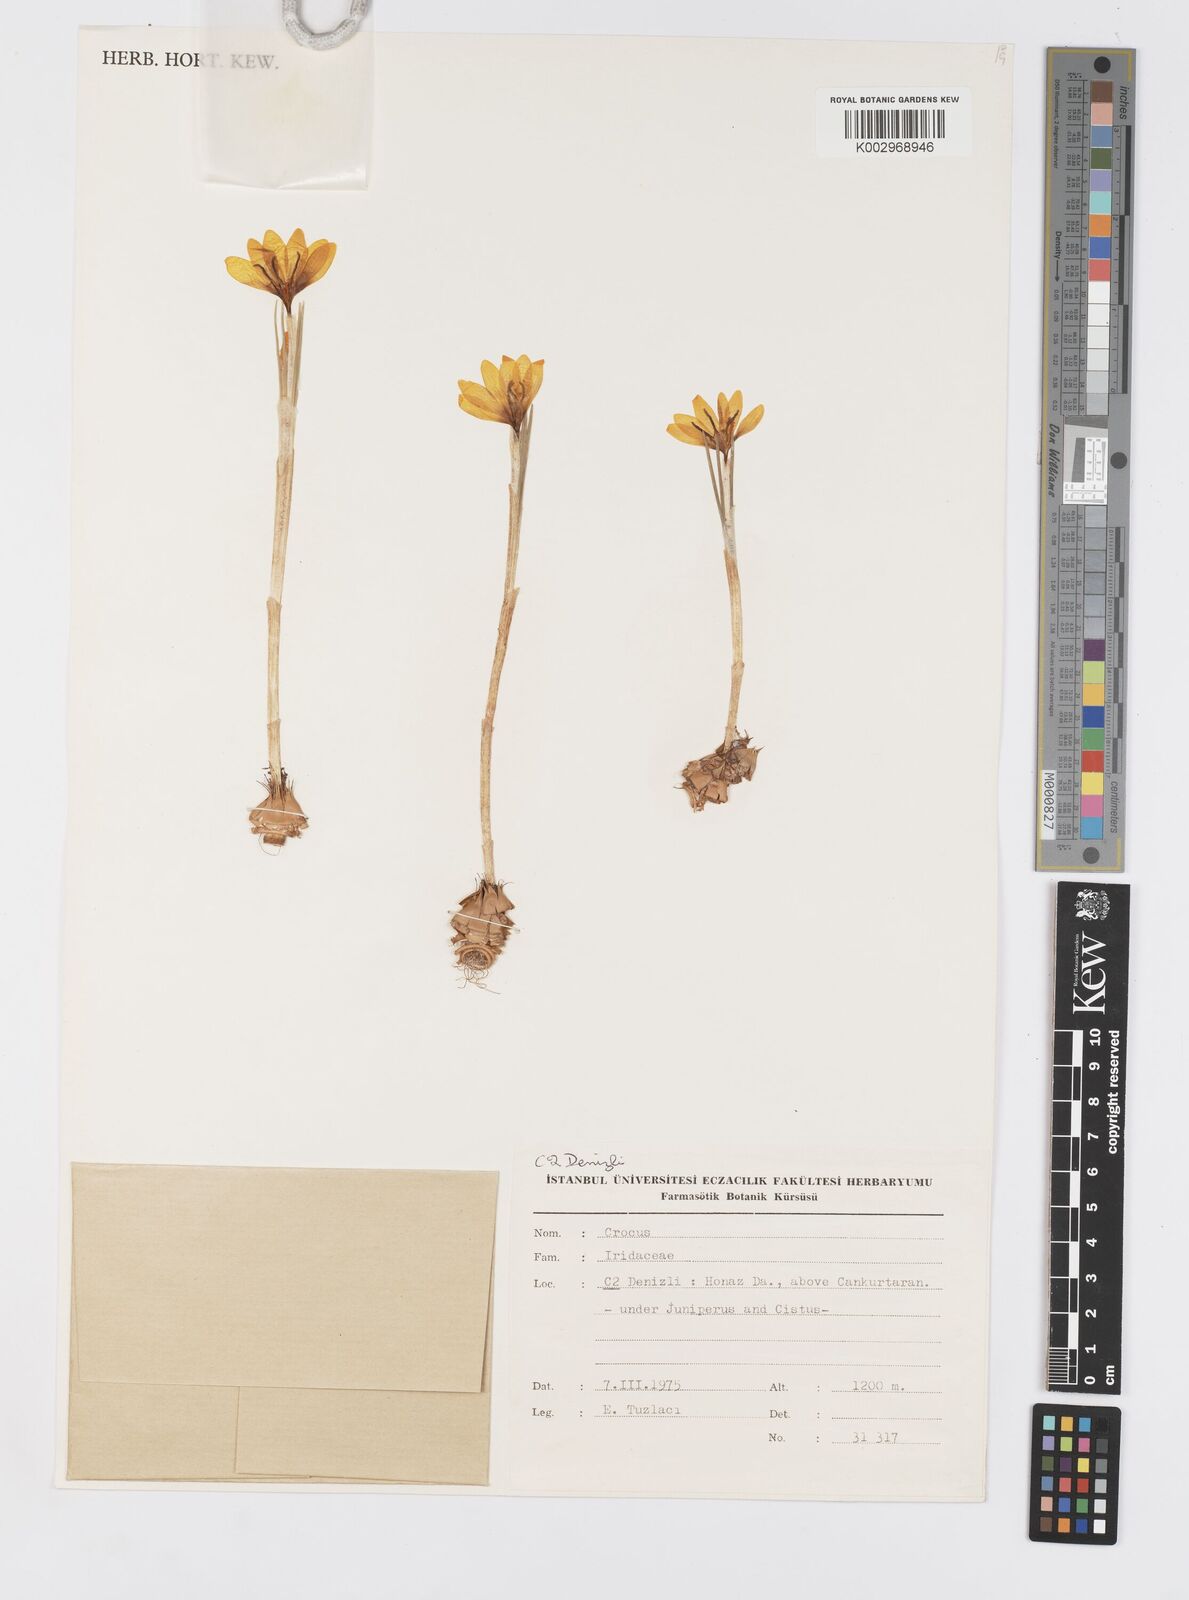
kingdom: Plantae
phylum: Tracheophyta
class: Liliopsida
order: Asparagales
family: Iridaceae
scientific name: Iridaceae
